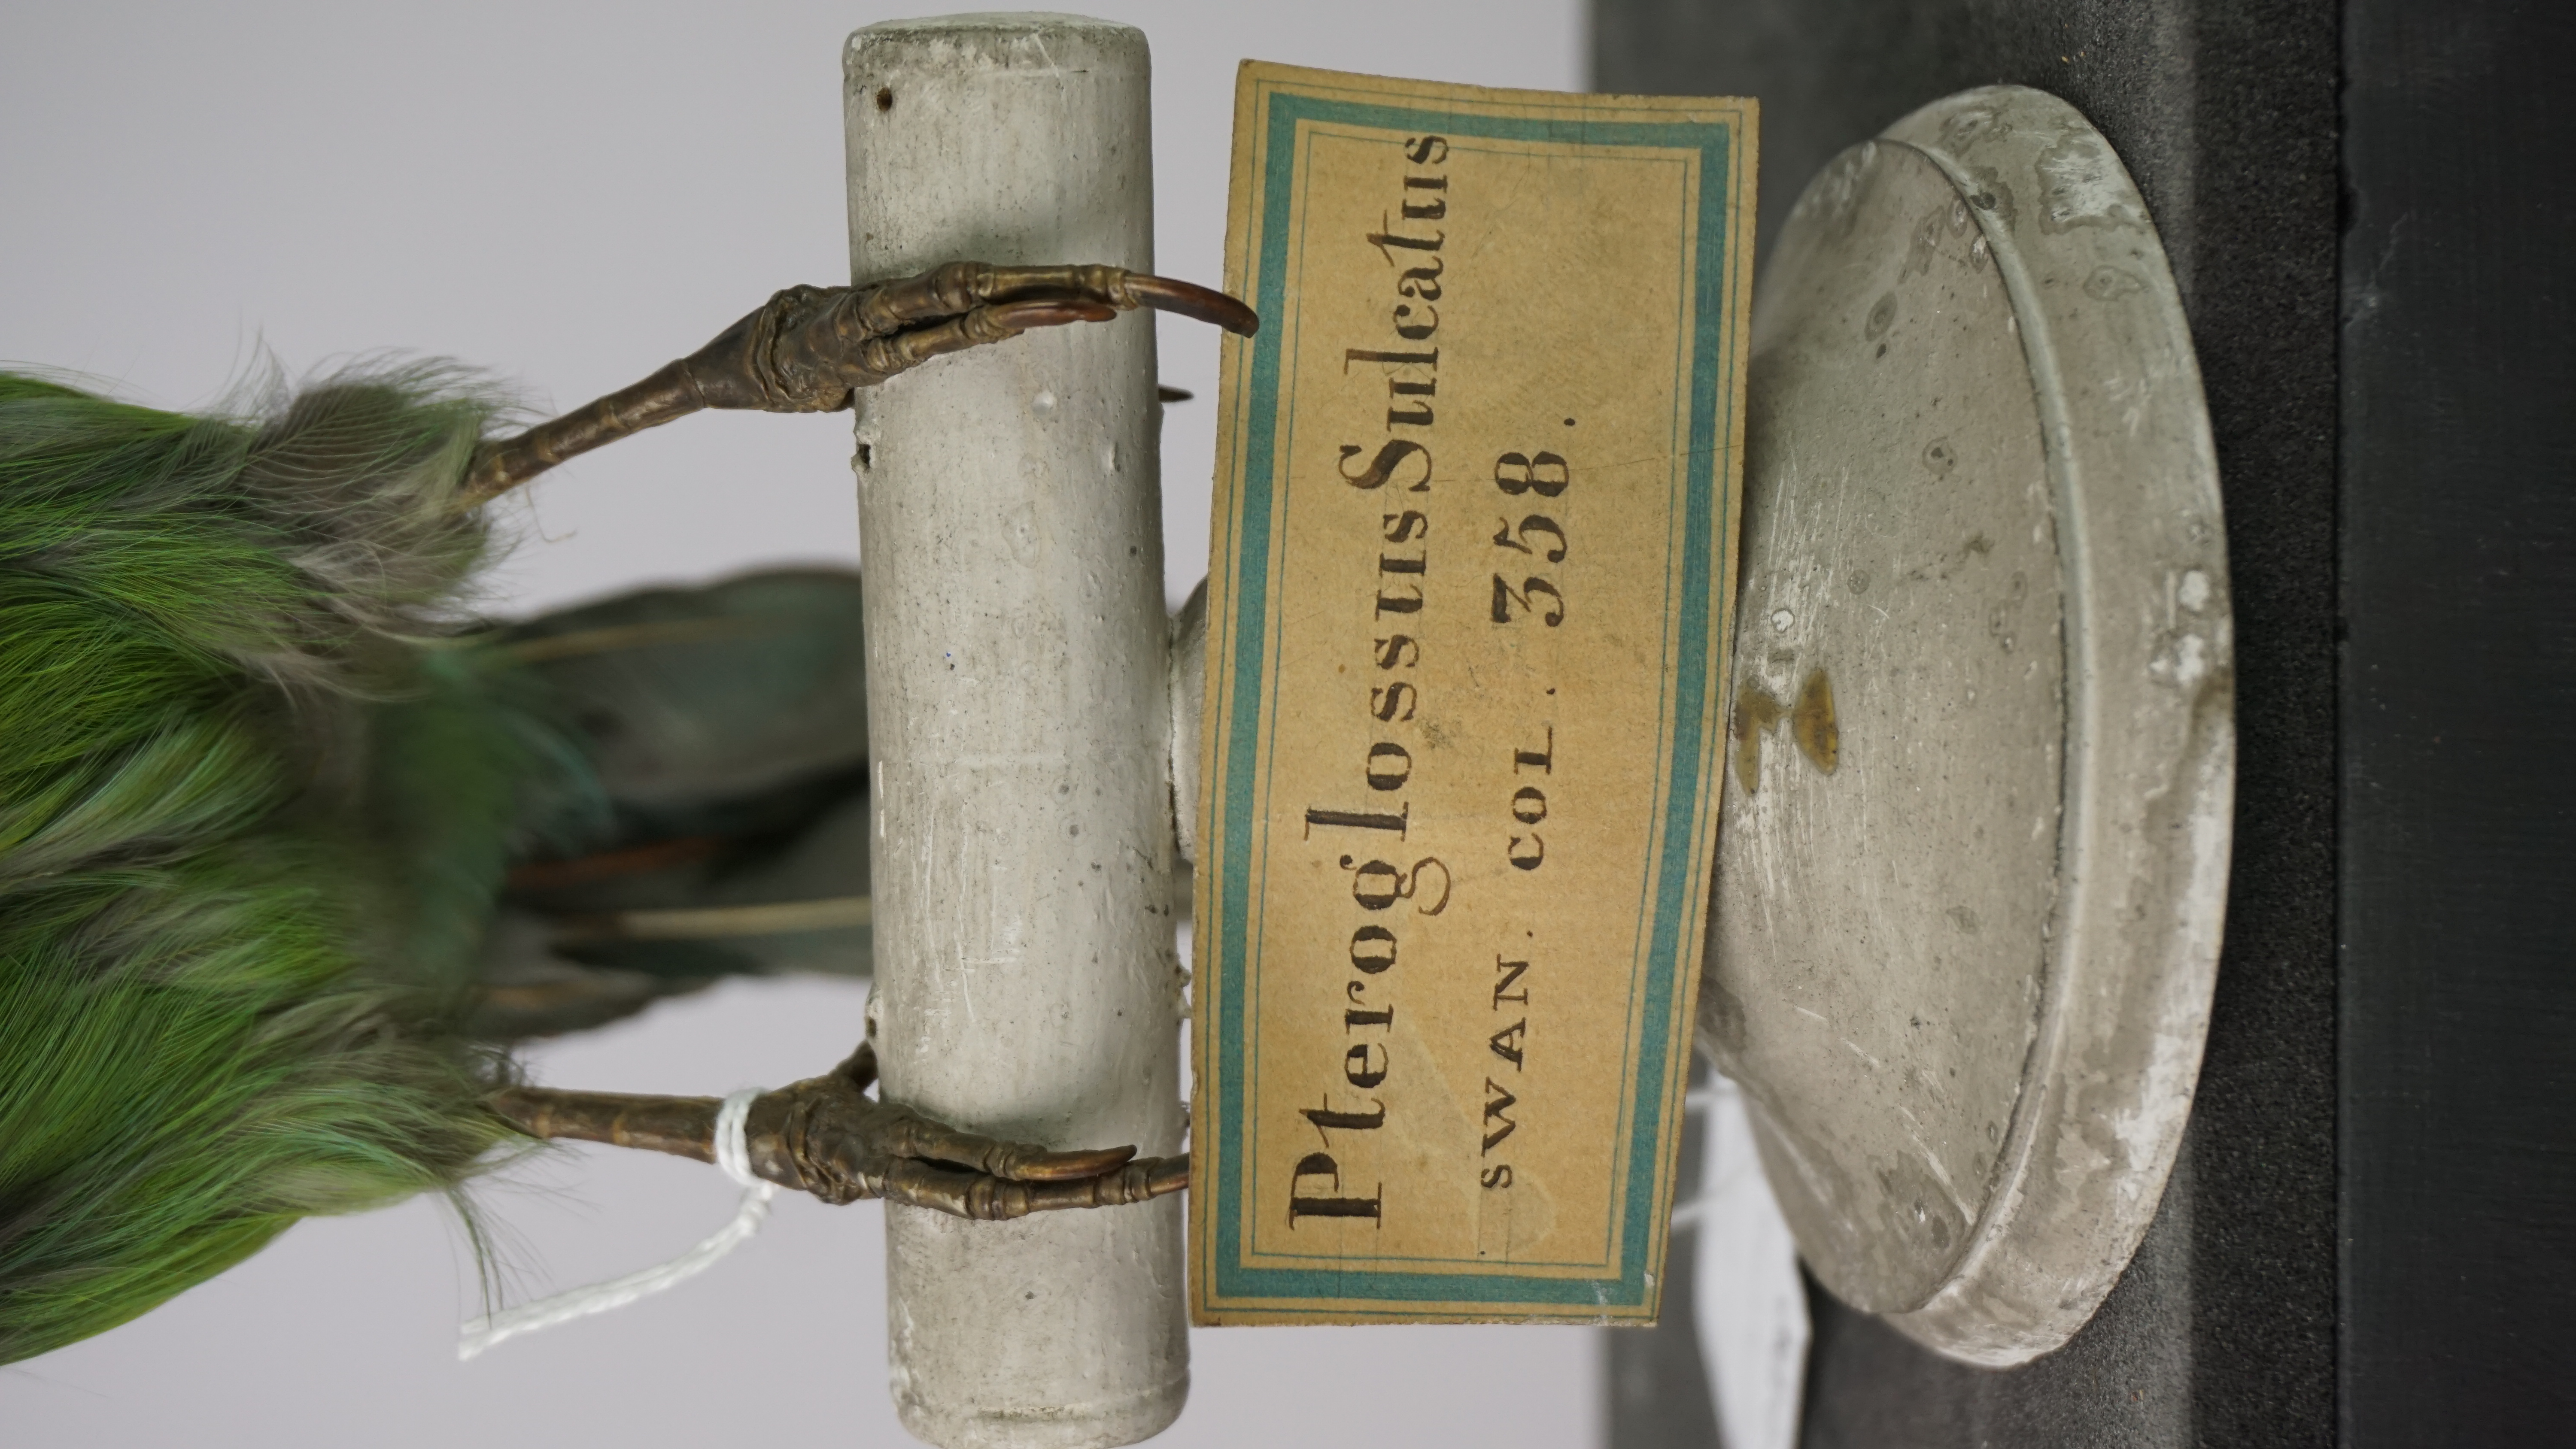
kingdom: Animalia
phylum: Chordata
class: Aves
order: Piciformes
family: Ramphastidae
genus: Aulacorhynchus
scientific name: Aulacorhynchus sulcatus
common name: Groove-billed toucanet
